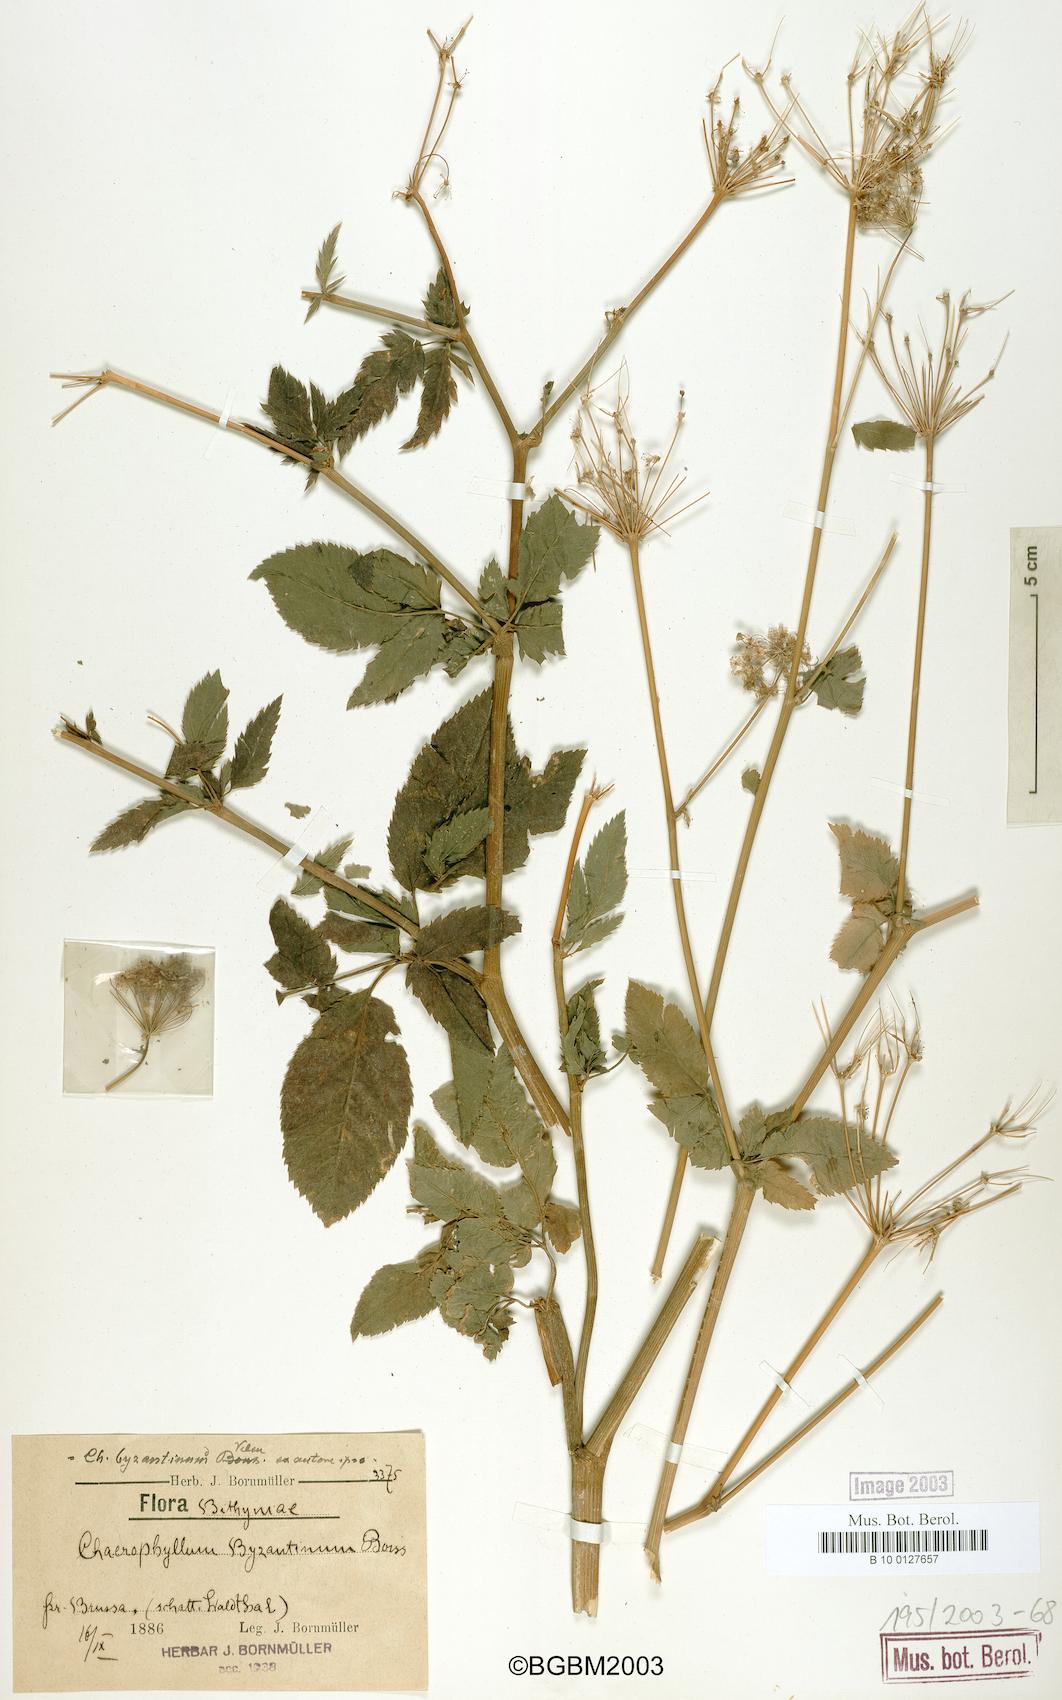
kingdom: Plantae
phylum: Tracheophyta
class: Magnoliopsida
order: Apiales
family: Apiaceae
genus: Chaerophyllum
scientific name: Chaerophyllum byzantinum
